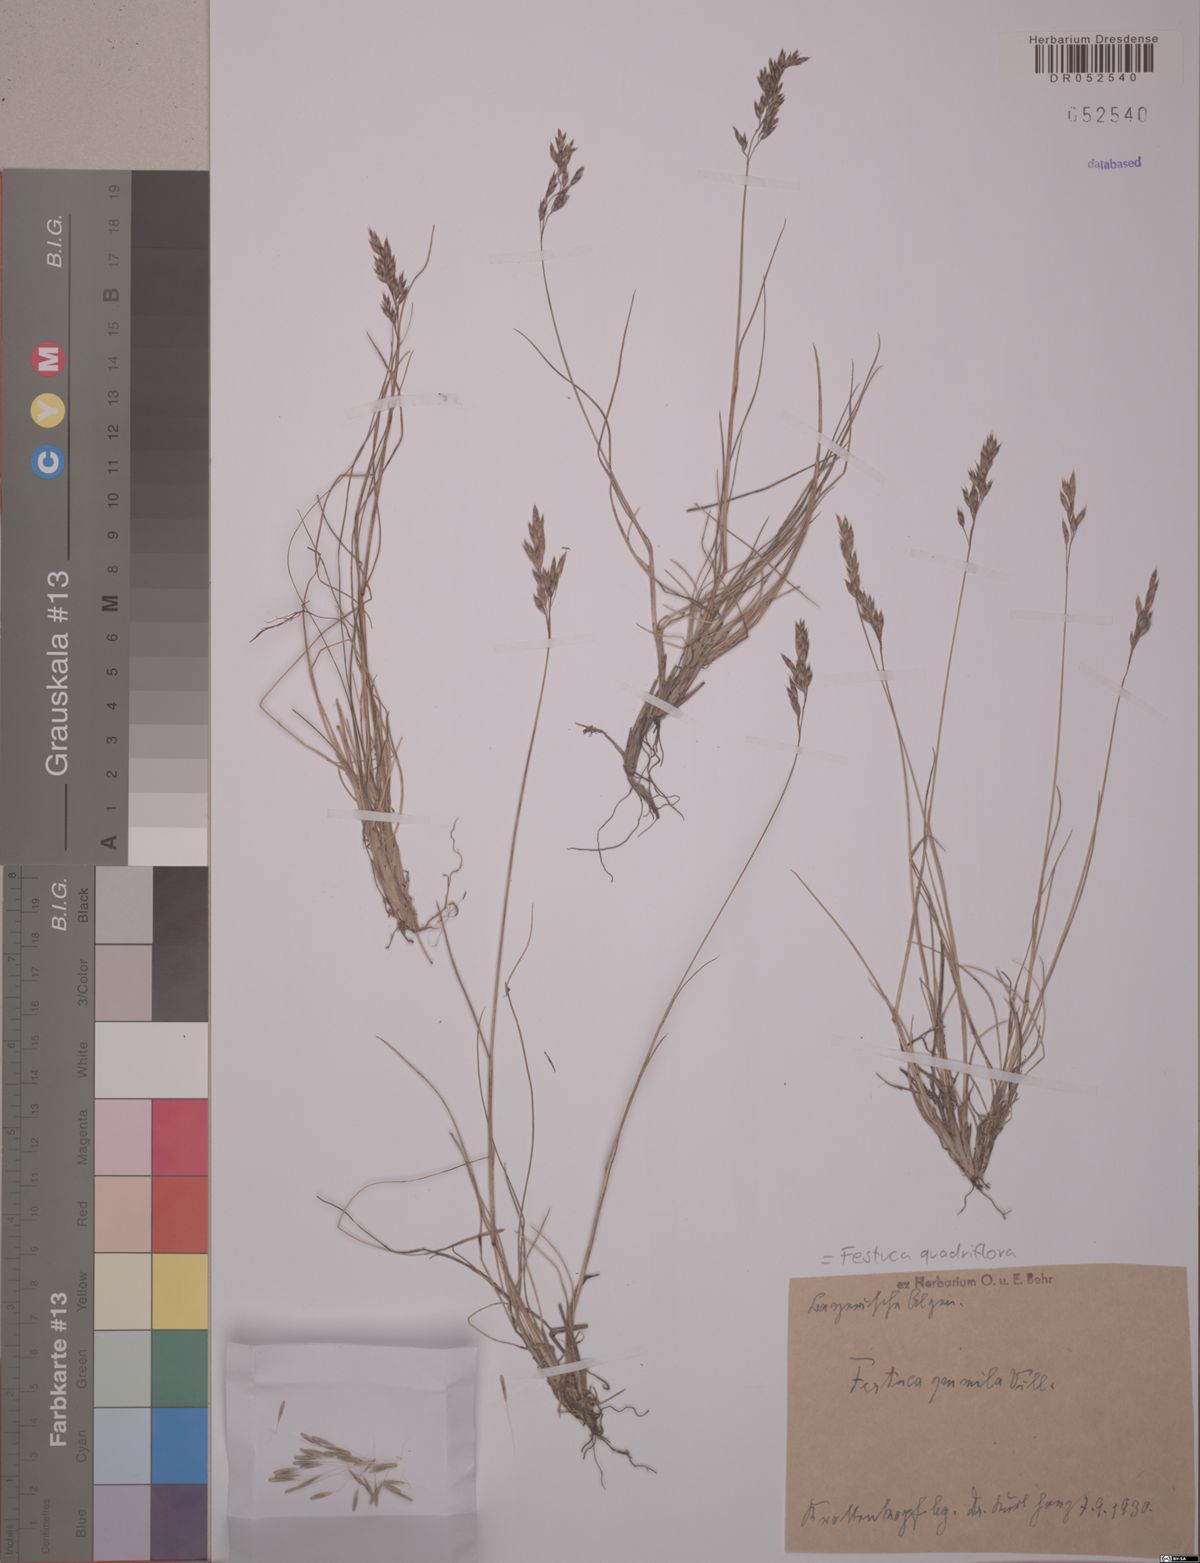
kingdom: Plantae
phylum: Tracheophyta
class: Liliopsida
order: Poales
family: Poaceae
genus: Festuca
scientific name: Festuca quadriflora
